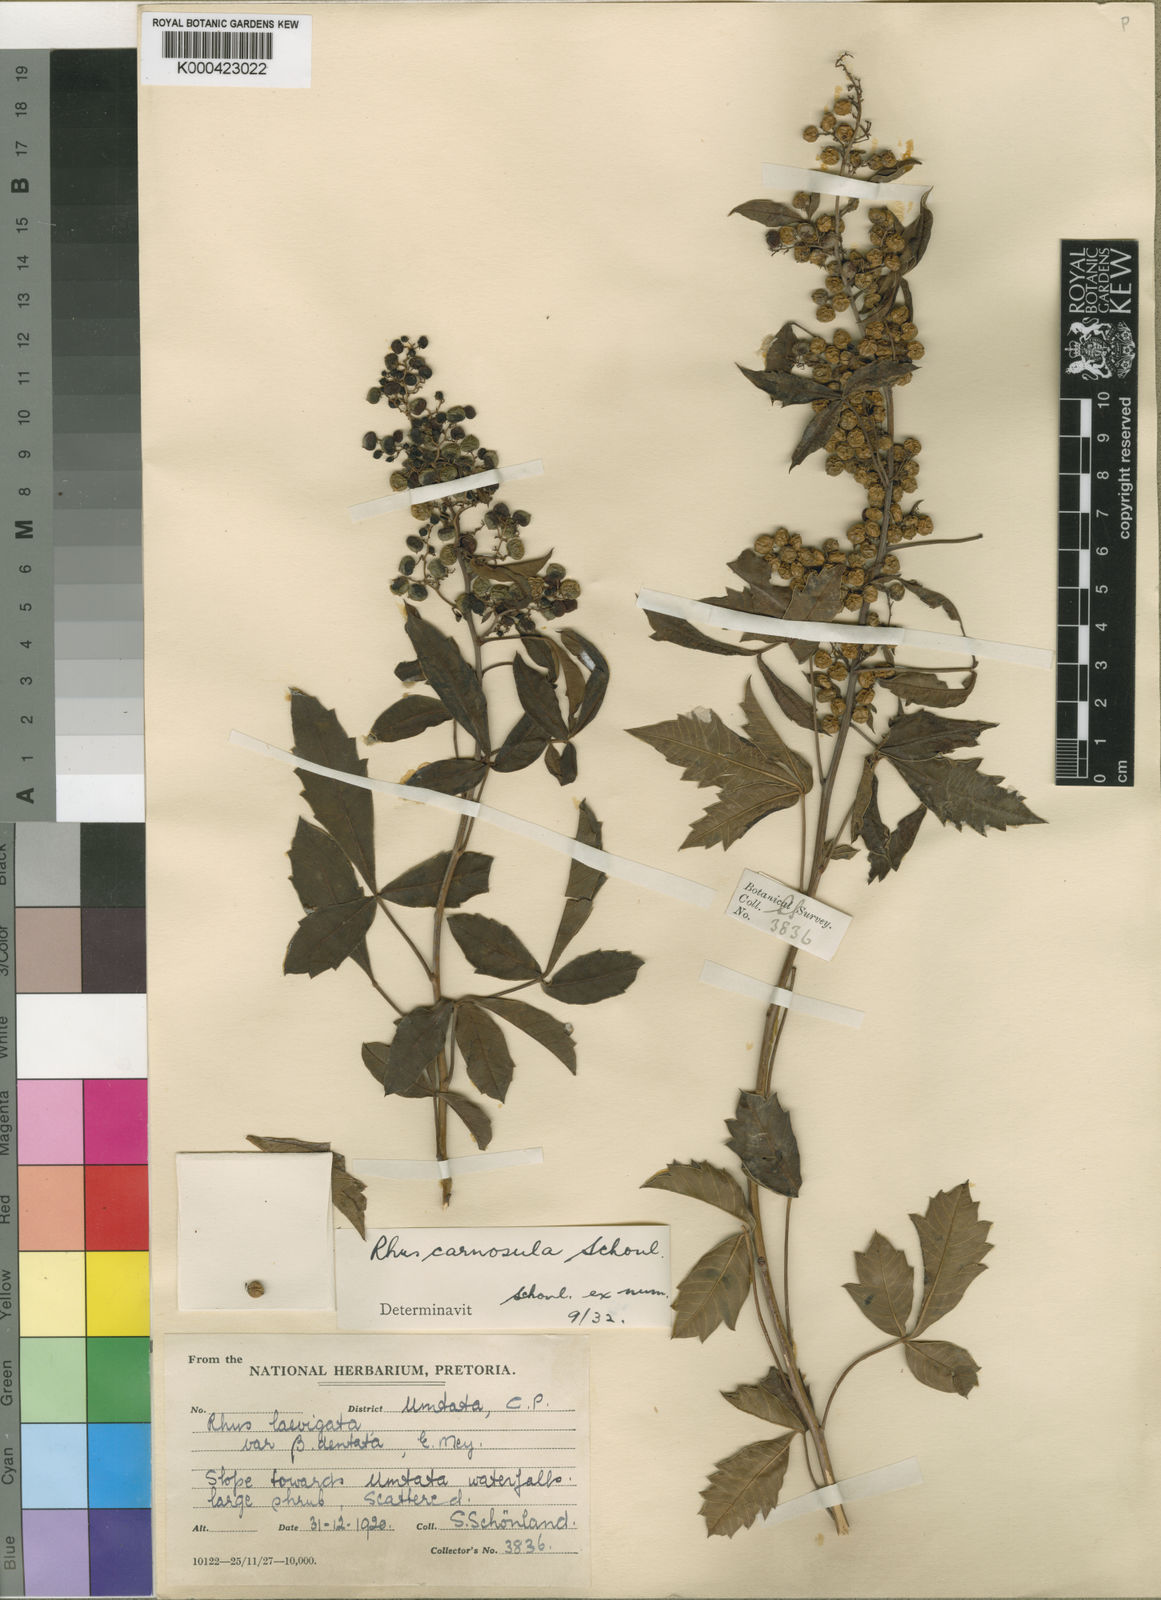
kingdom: Plantae
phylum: Tracheophyta
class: Magnoliopsida
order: Sapindales
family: Anacardiaceae
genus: Rhus
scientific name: Rhus
